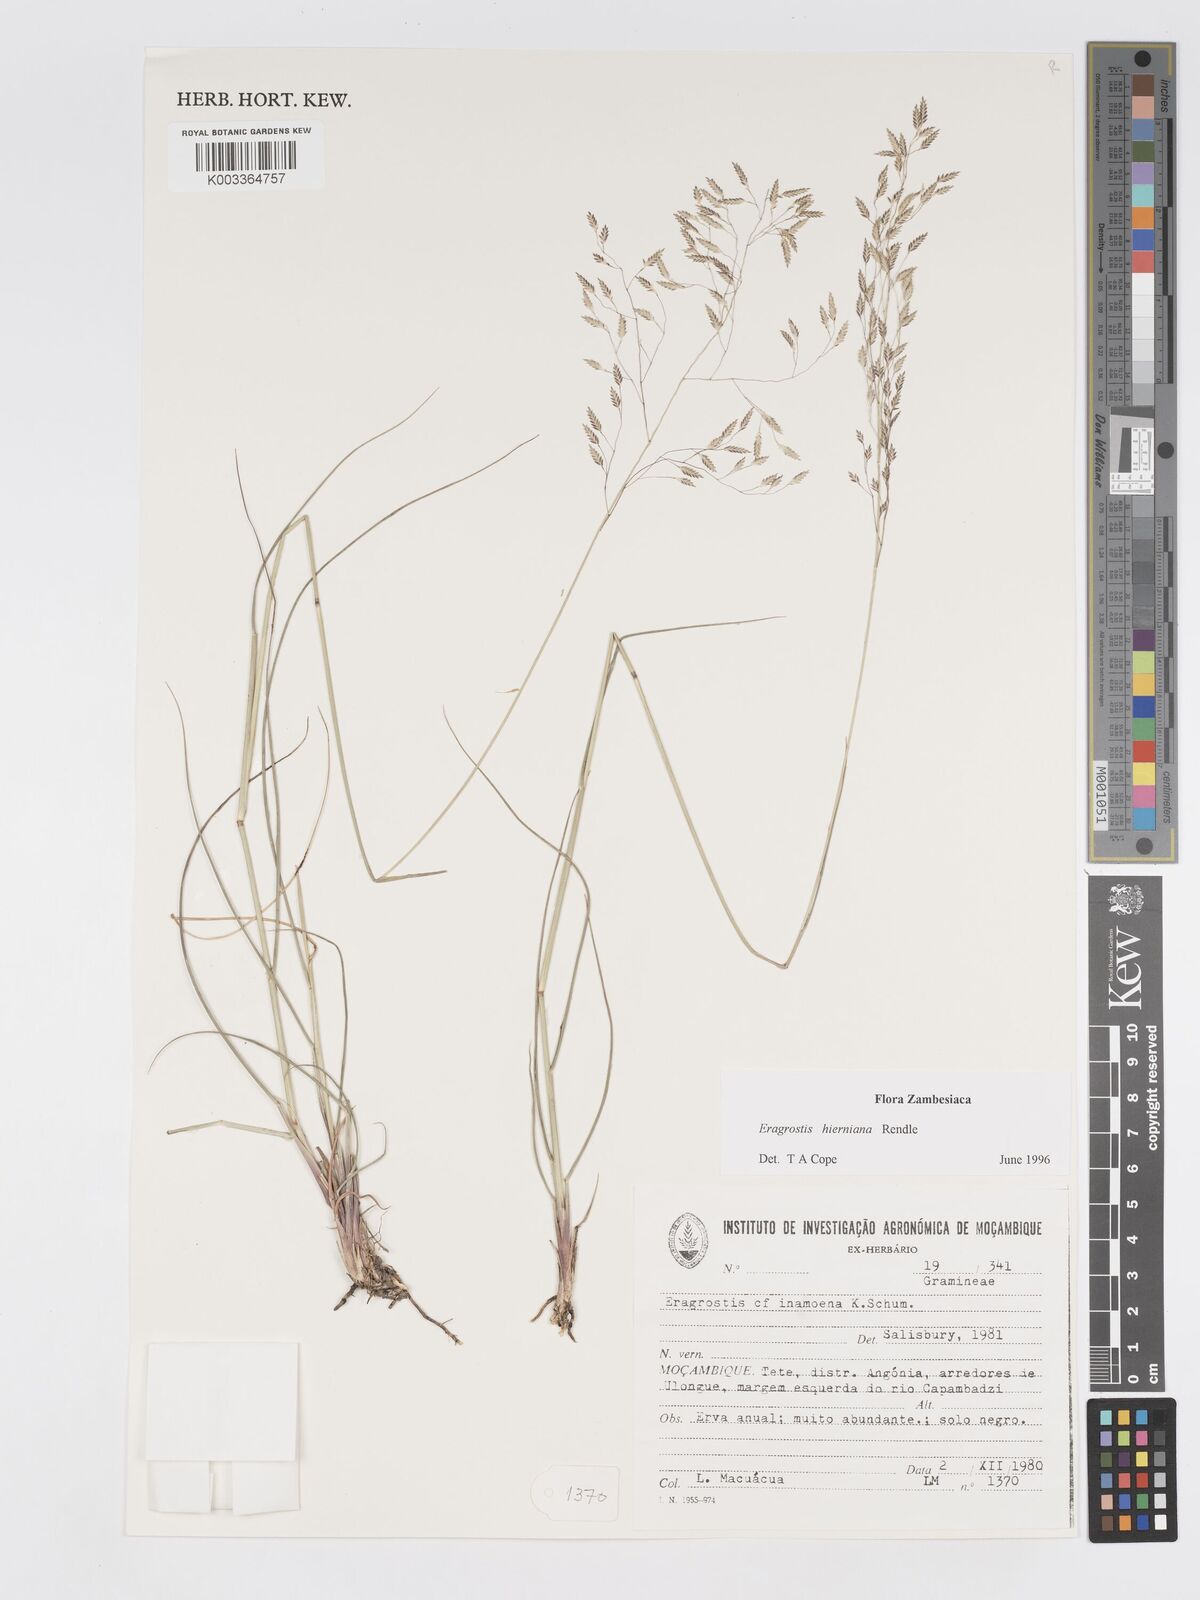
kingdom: Plantae
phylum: Tracheophyta
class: Liliopsida
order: Poales
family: Poaceae
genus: Eragrostis
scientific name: Eragrostis hierniana
